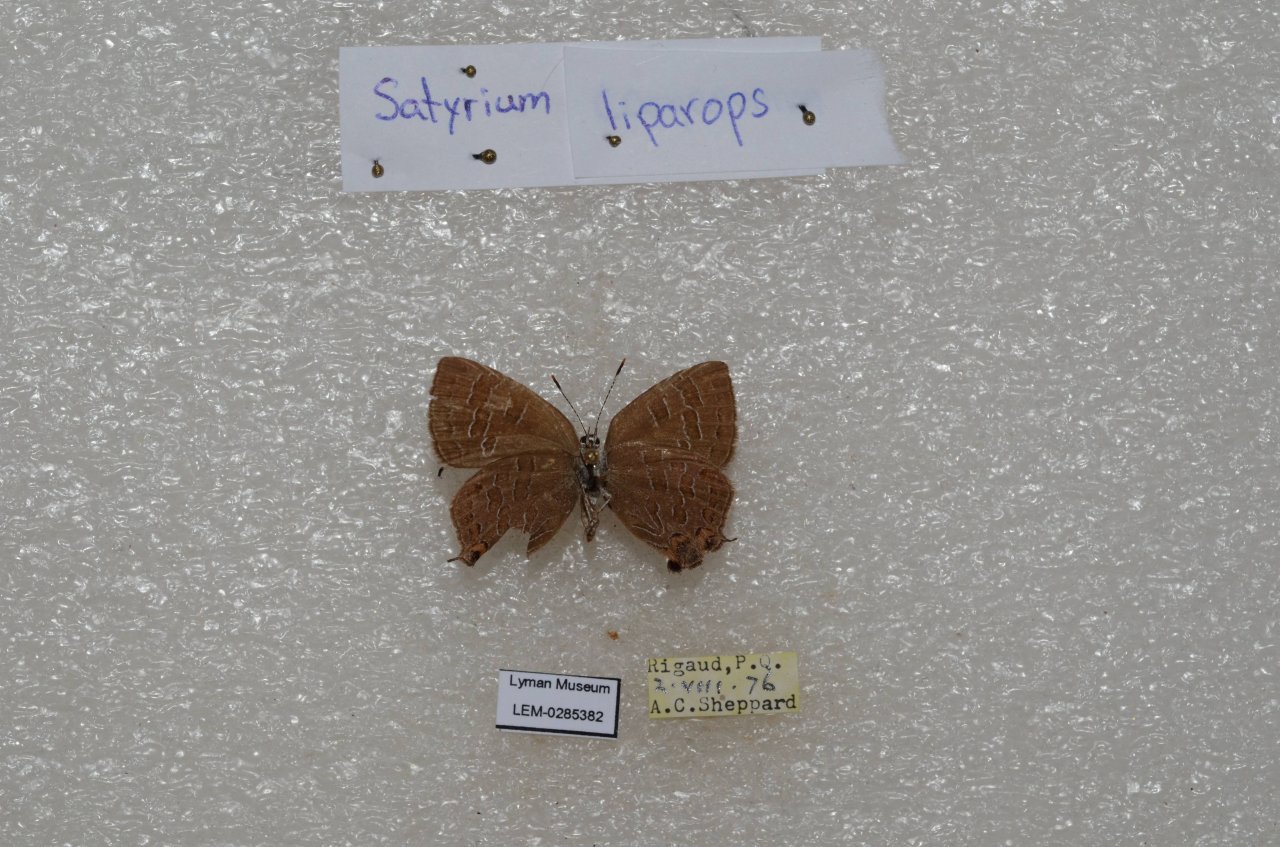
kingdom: Animalia
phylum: Arthropoda
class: Insecta
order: Lepidoptera
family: Lycaenidae
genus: Satyrium
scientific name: Satyrium liparops
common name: Striped Hairstreak
